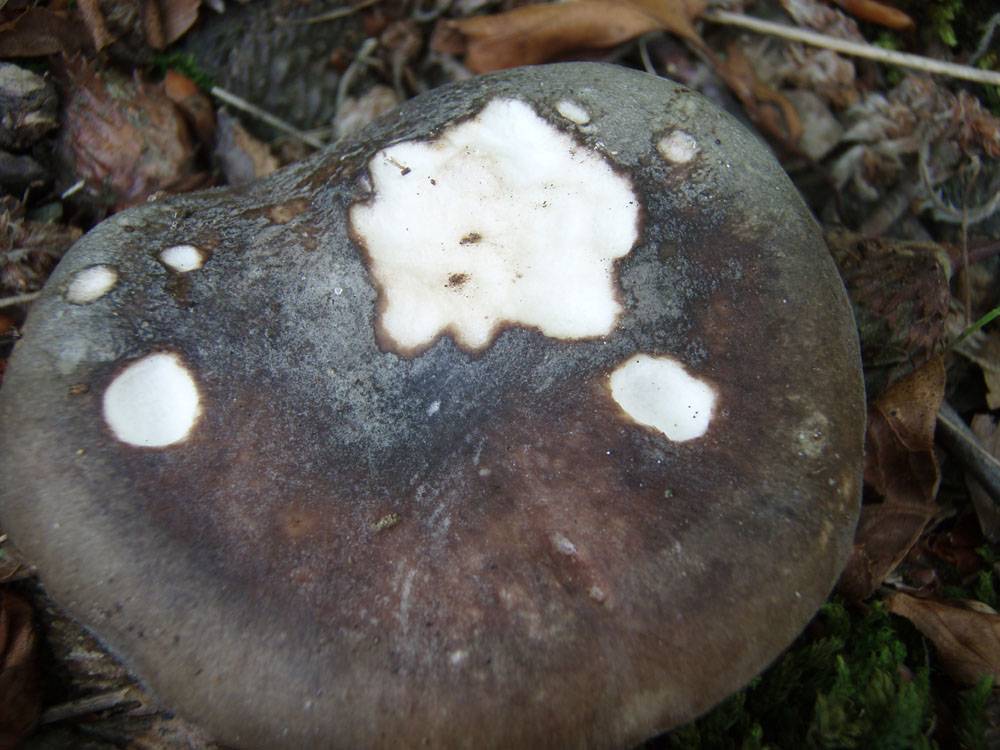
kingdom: Fungi
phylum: Basidiomycota
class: Agaricomycetes
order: Russulales
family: Russulaceae
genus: Russula
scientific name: Russula ionochlora
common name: violetgrøn skørhat
